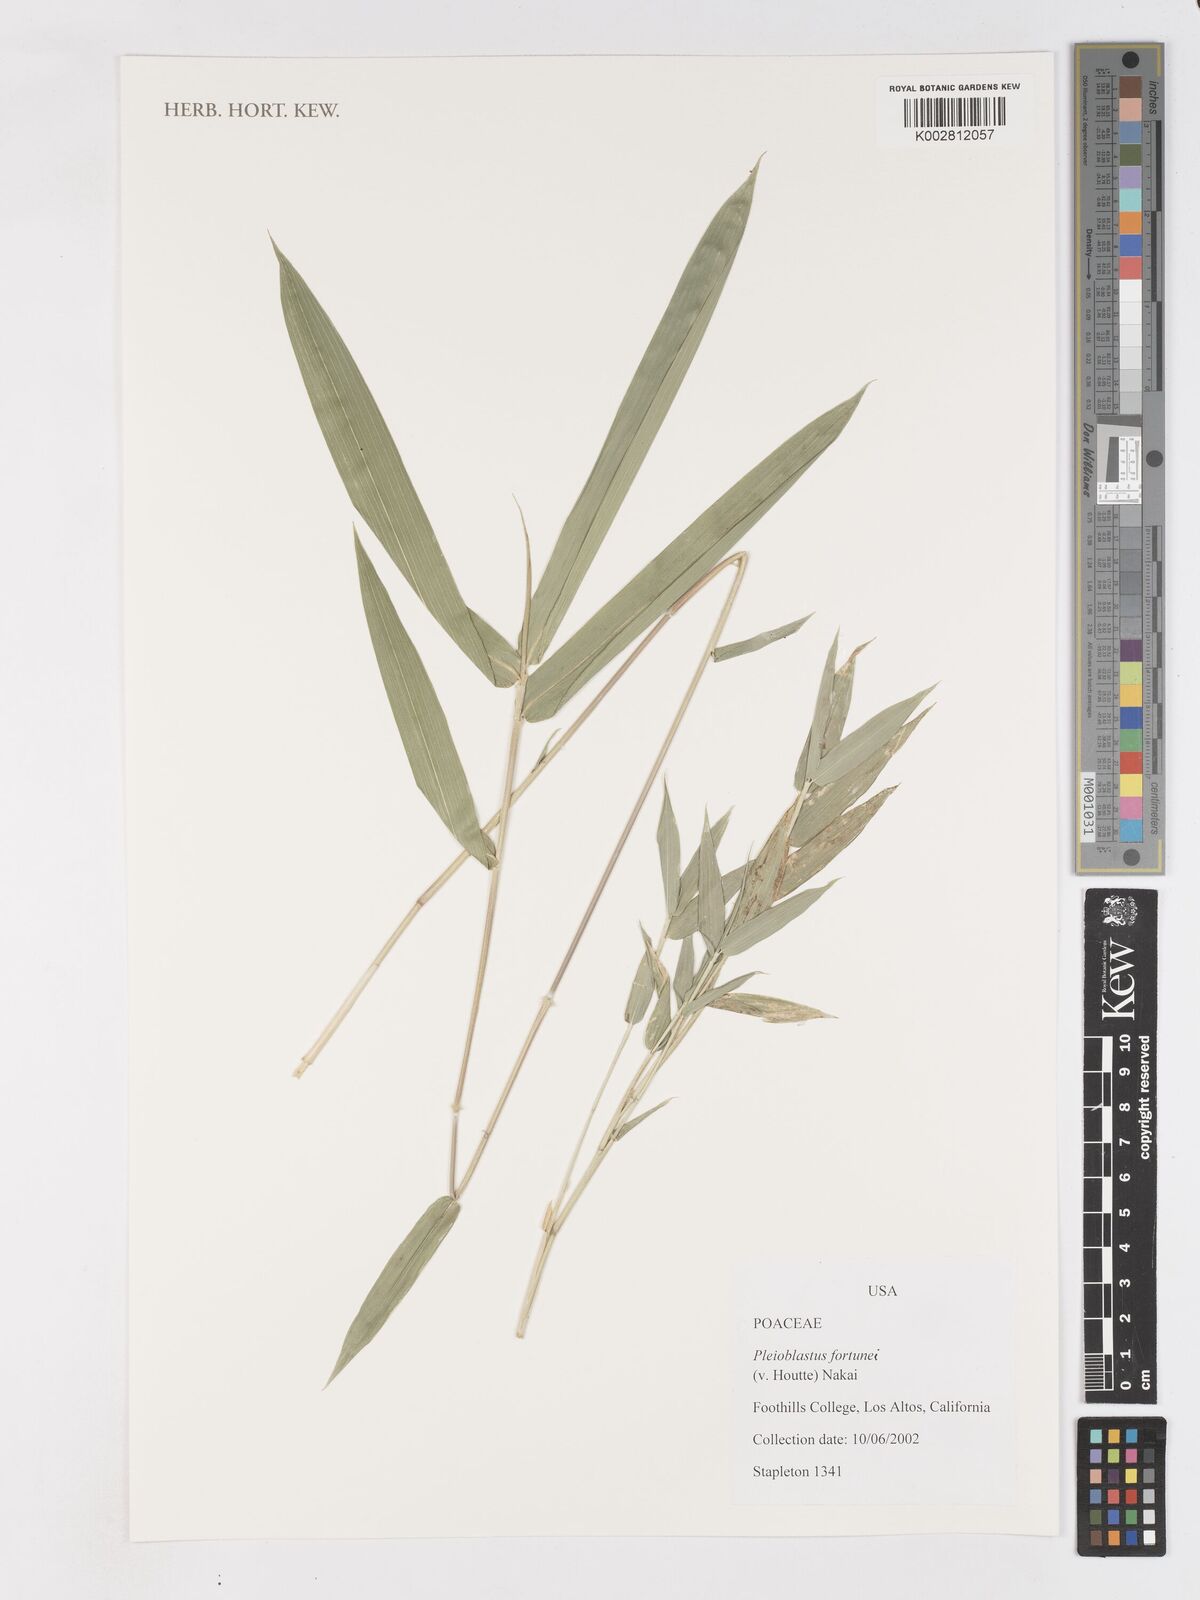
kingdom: Plantae
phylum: Tracheophyta
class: Liliopsida
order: Poales
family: Poaceae
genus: Borinda
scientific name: Borinda pleniculmis
